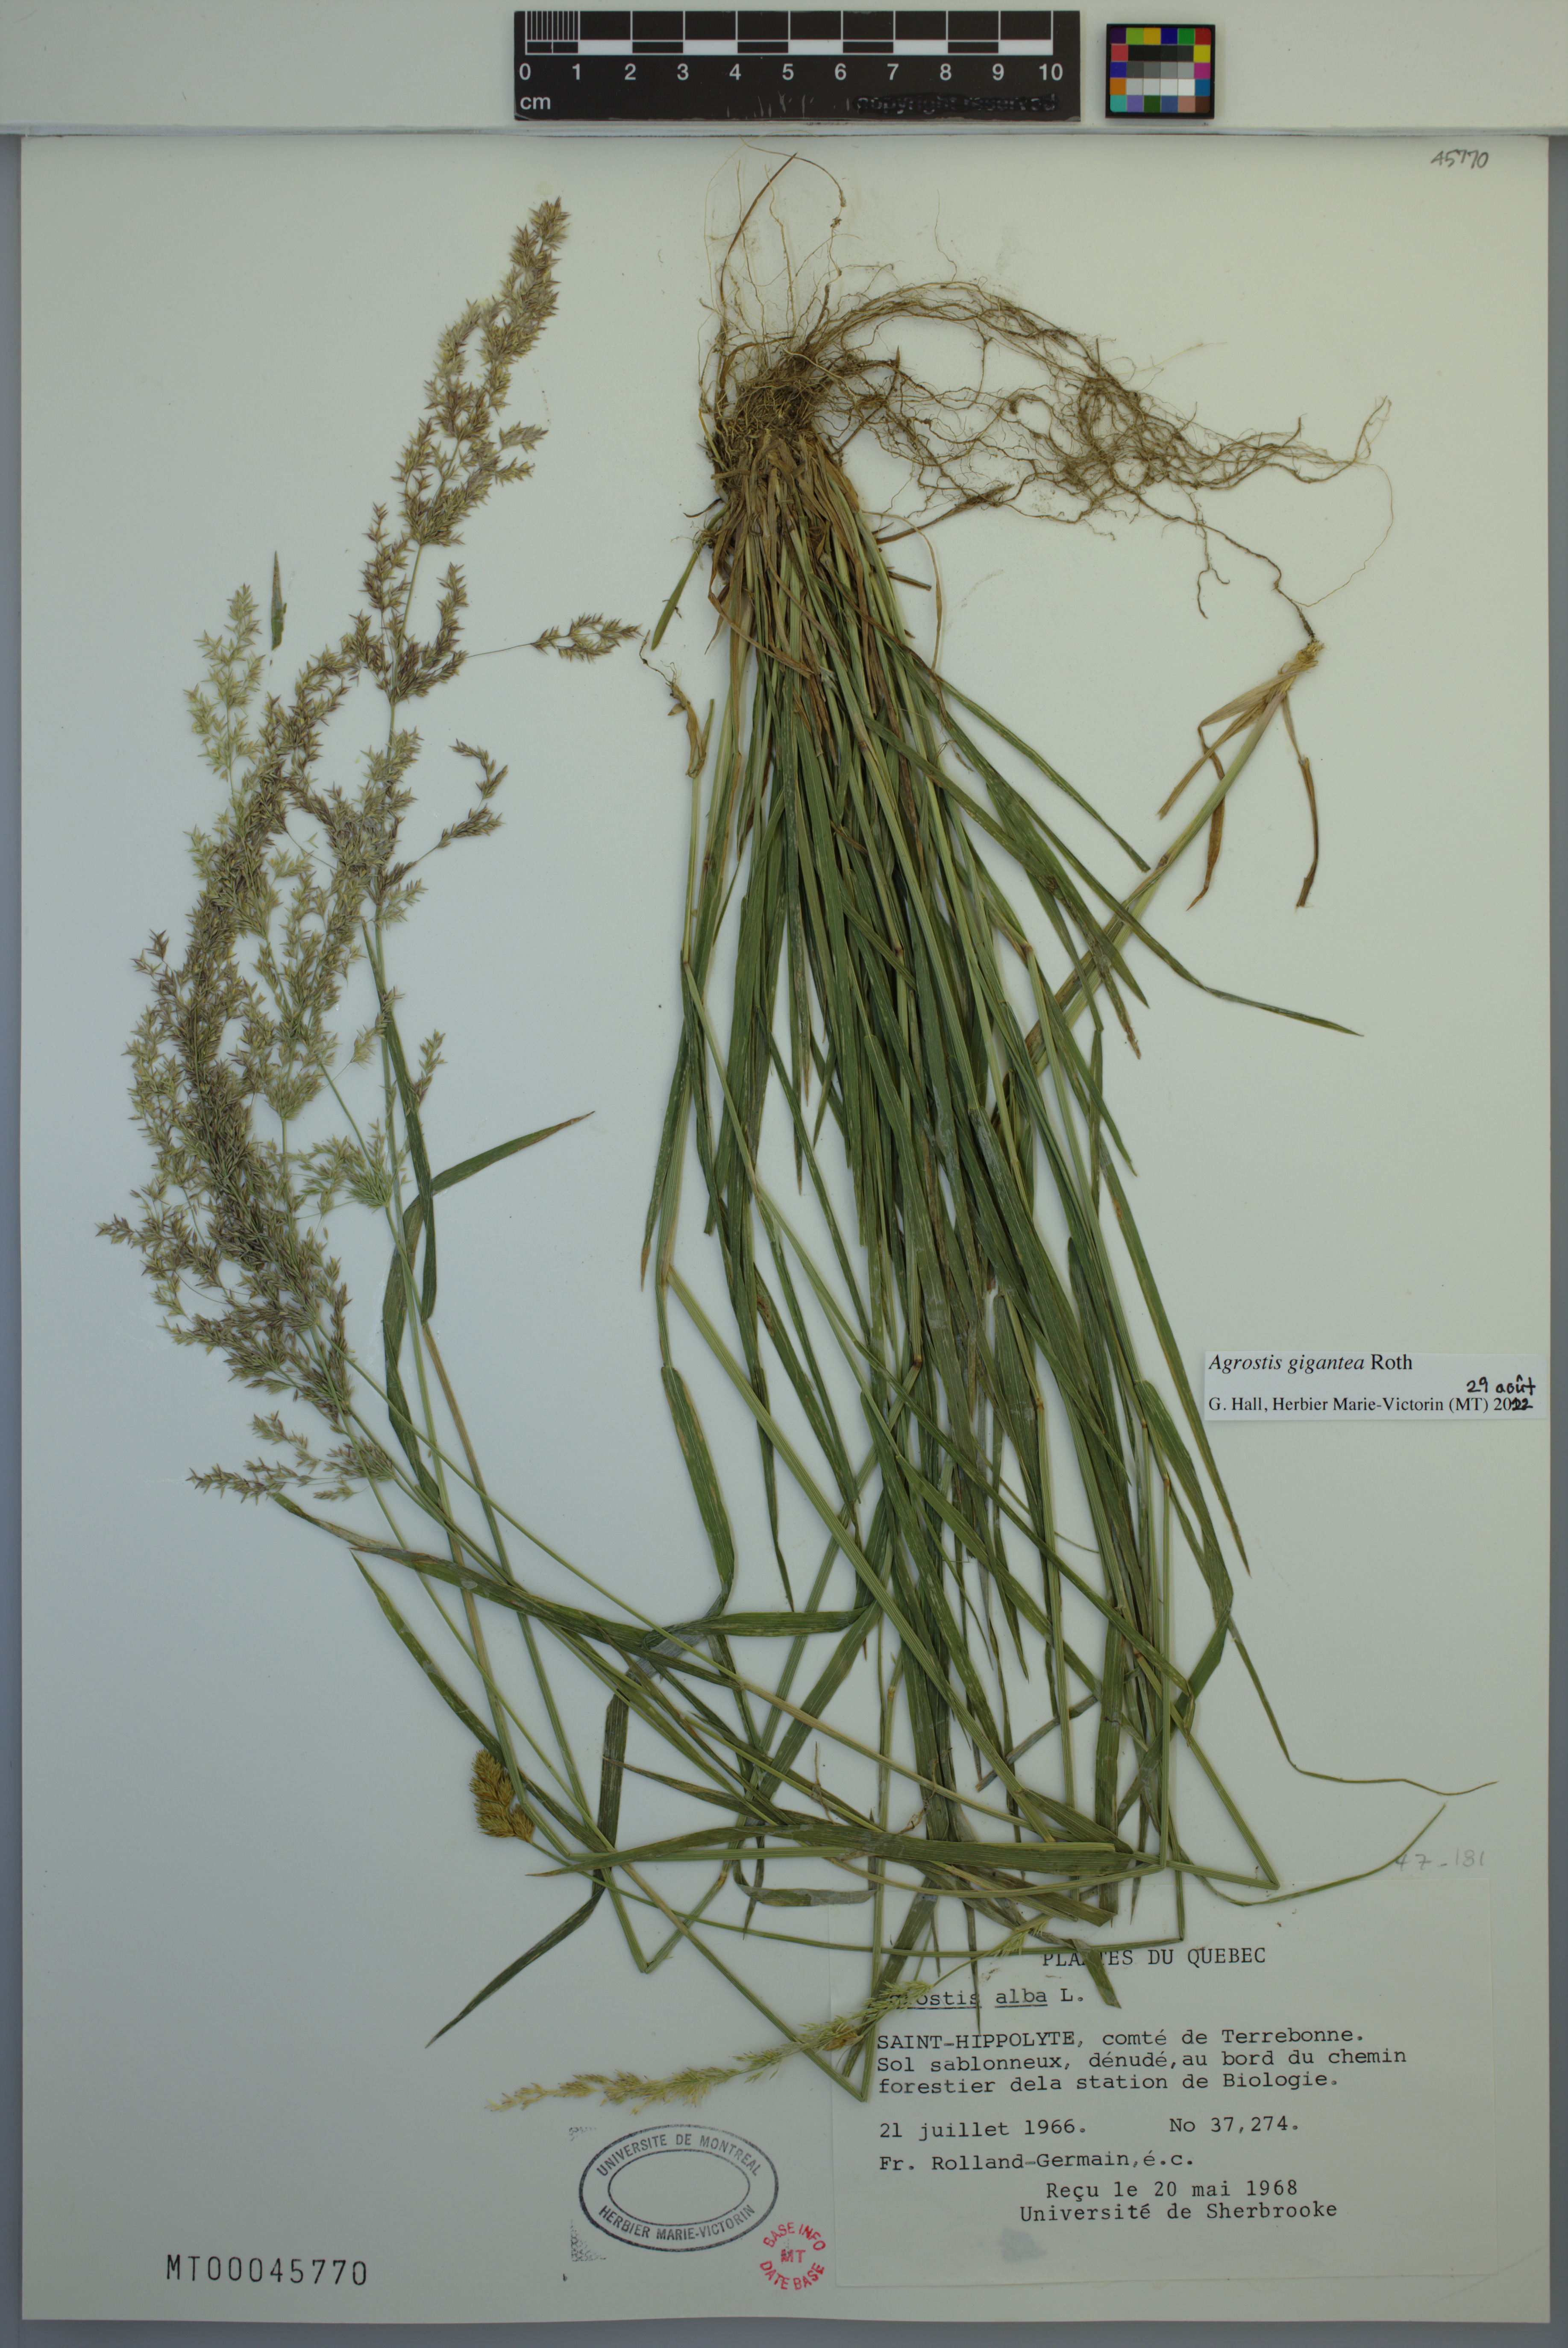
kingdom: Plantae
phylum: Tracheophyta
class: Liliopsida
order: Poales
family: Poaceae
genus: Agrostis
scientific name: Agrostis gigantea
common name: Black bent
